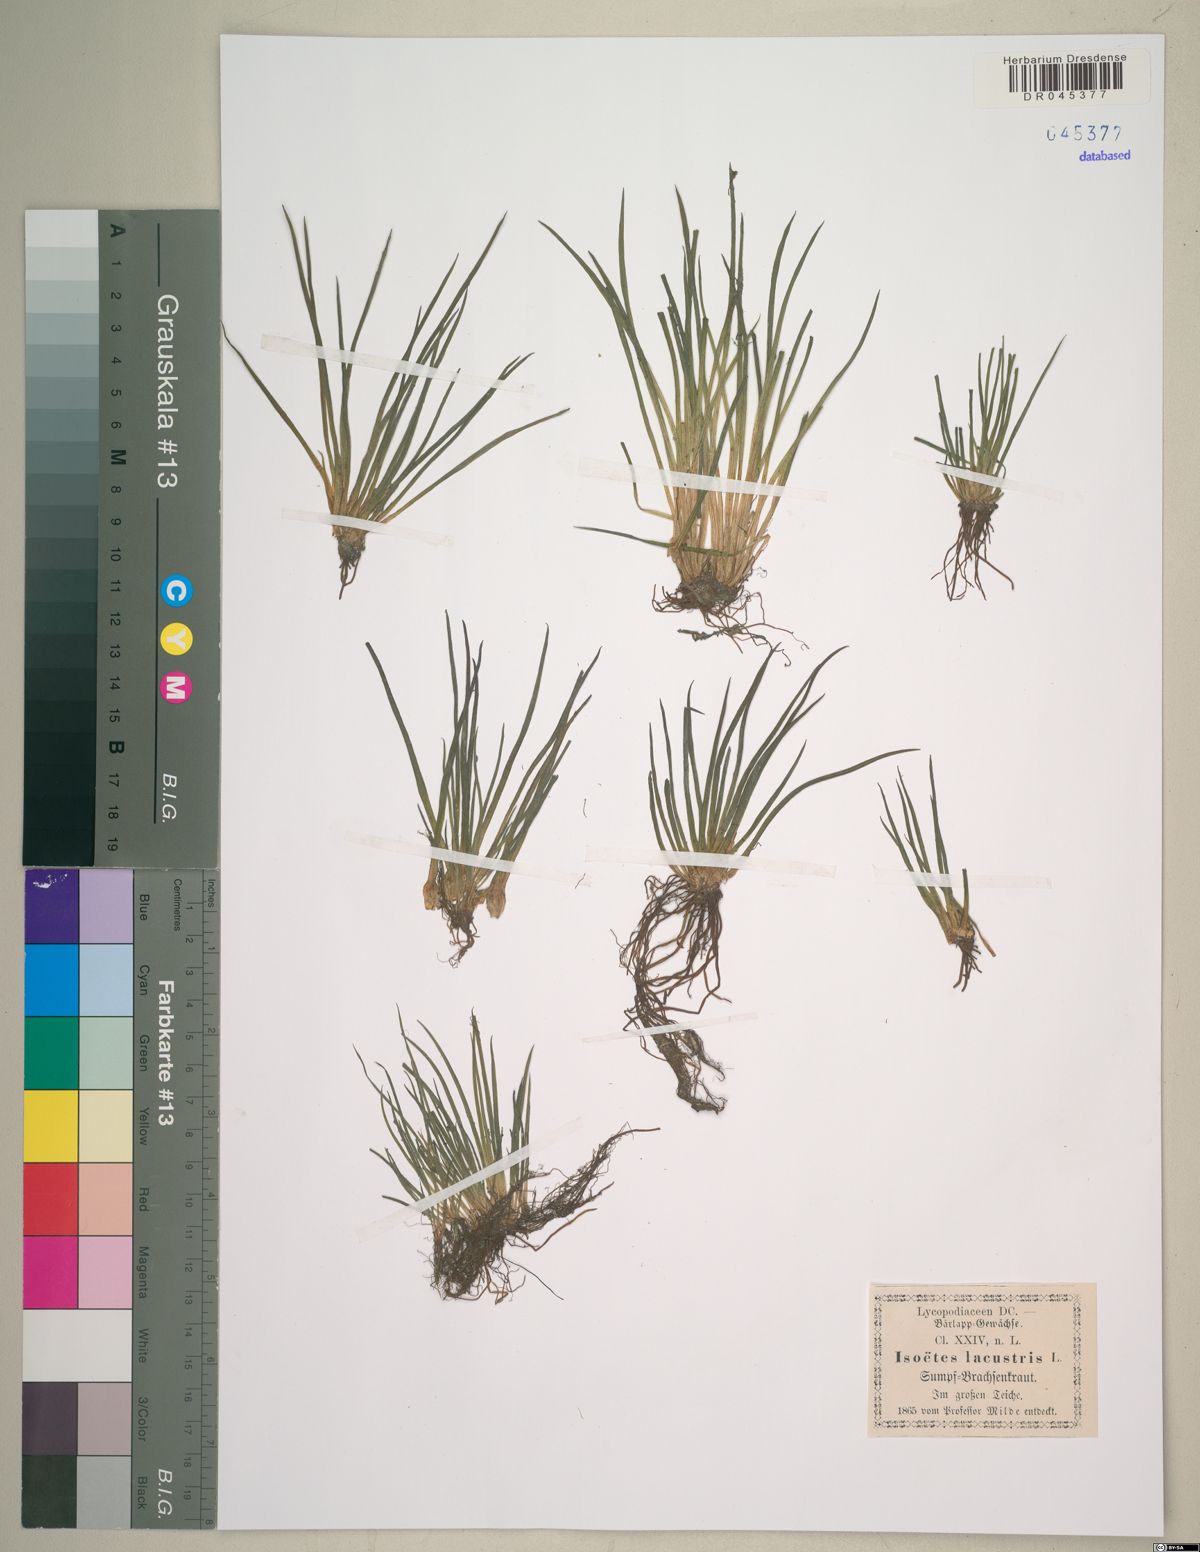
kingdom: Plantae
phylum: Tracheophyta
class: Lycopodiopsida
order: Isoetales
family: Isoetaceae
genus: Isoetes
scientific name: Isoetes lacustris
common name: Common quillwort
